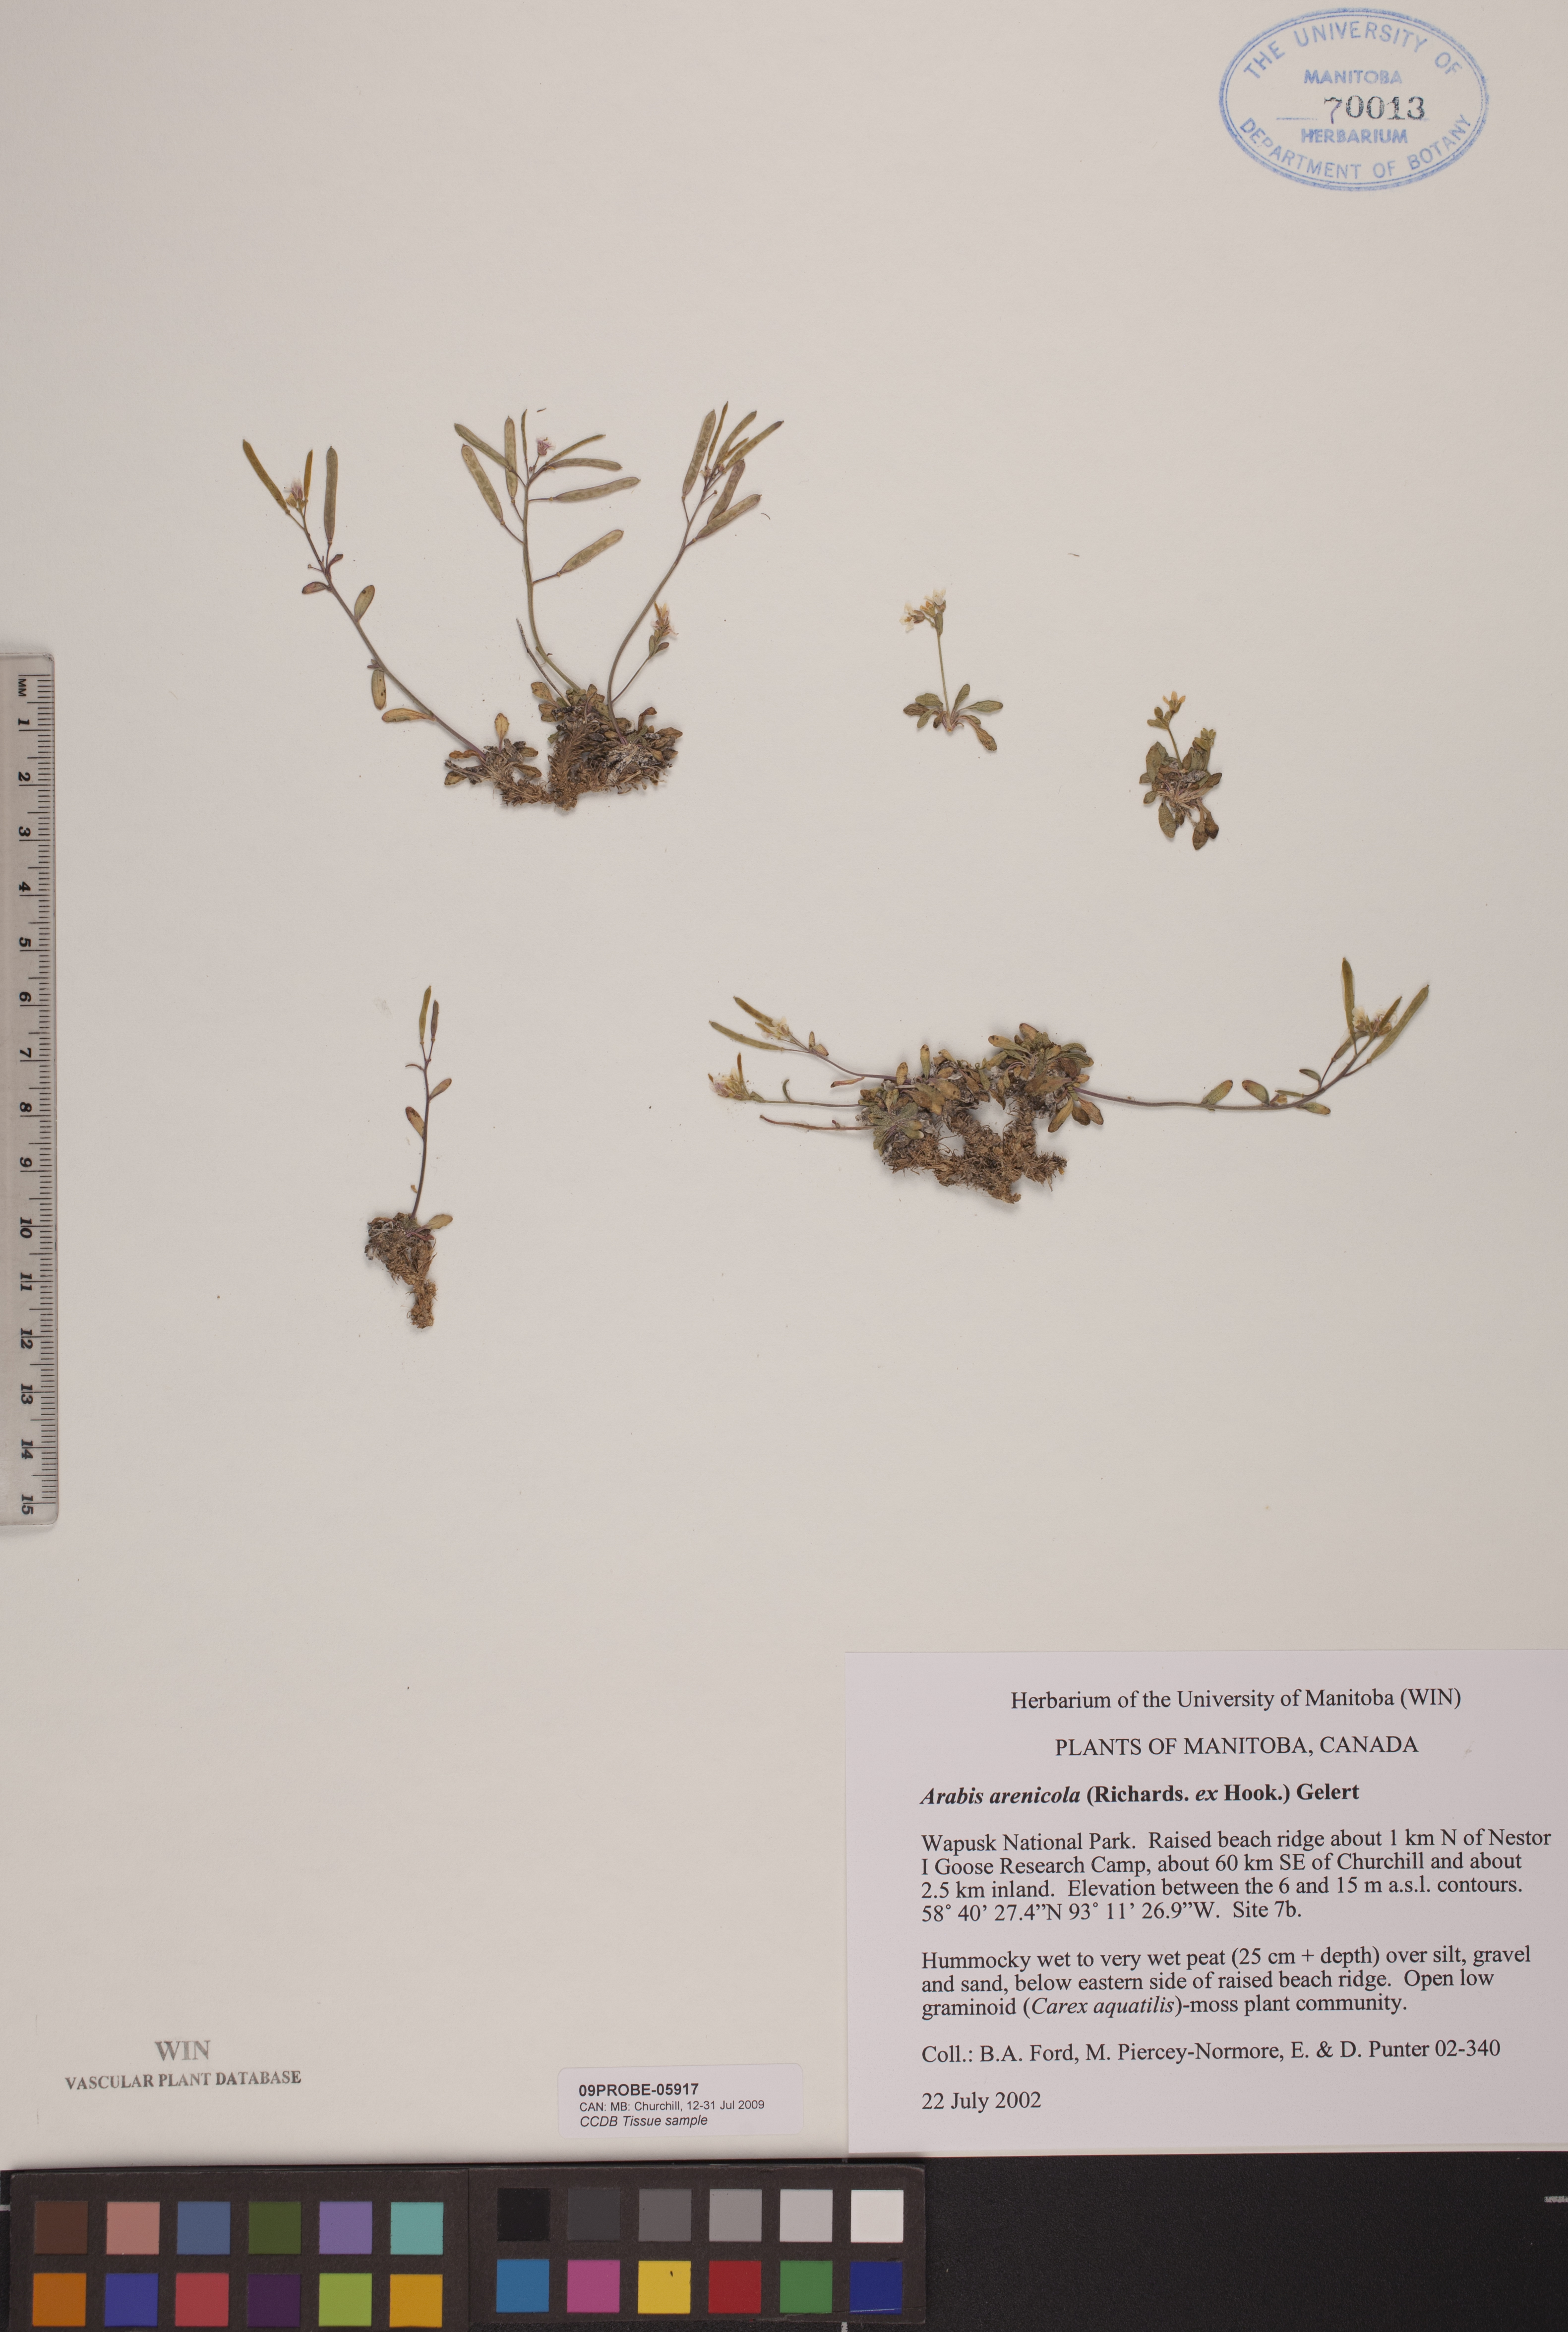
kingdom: Plantae
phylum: Tracheophyta
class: Magnoliopsida
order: Brassicales
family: Brassicaceae
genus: Arabidopsis
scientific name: Arabidopsis arenicola
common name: Arctic rockcress
